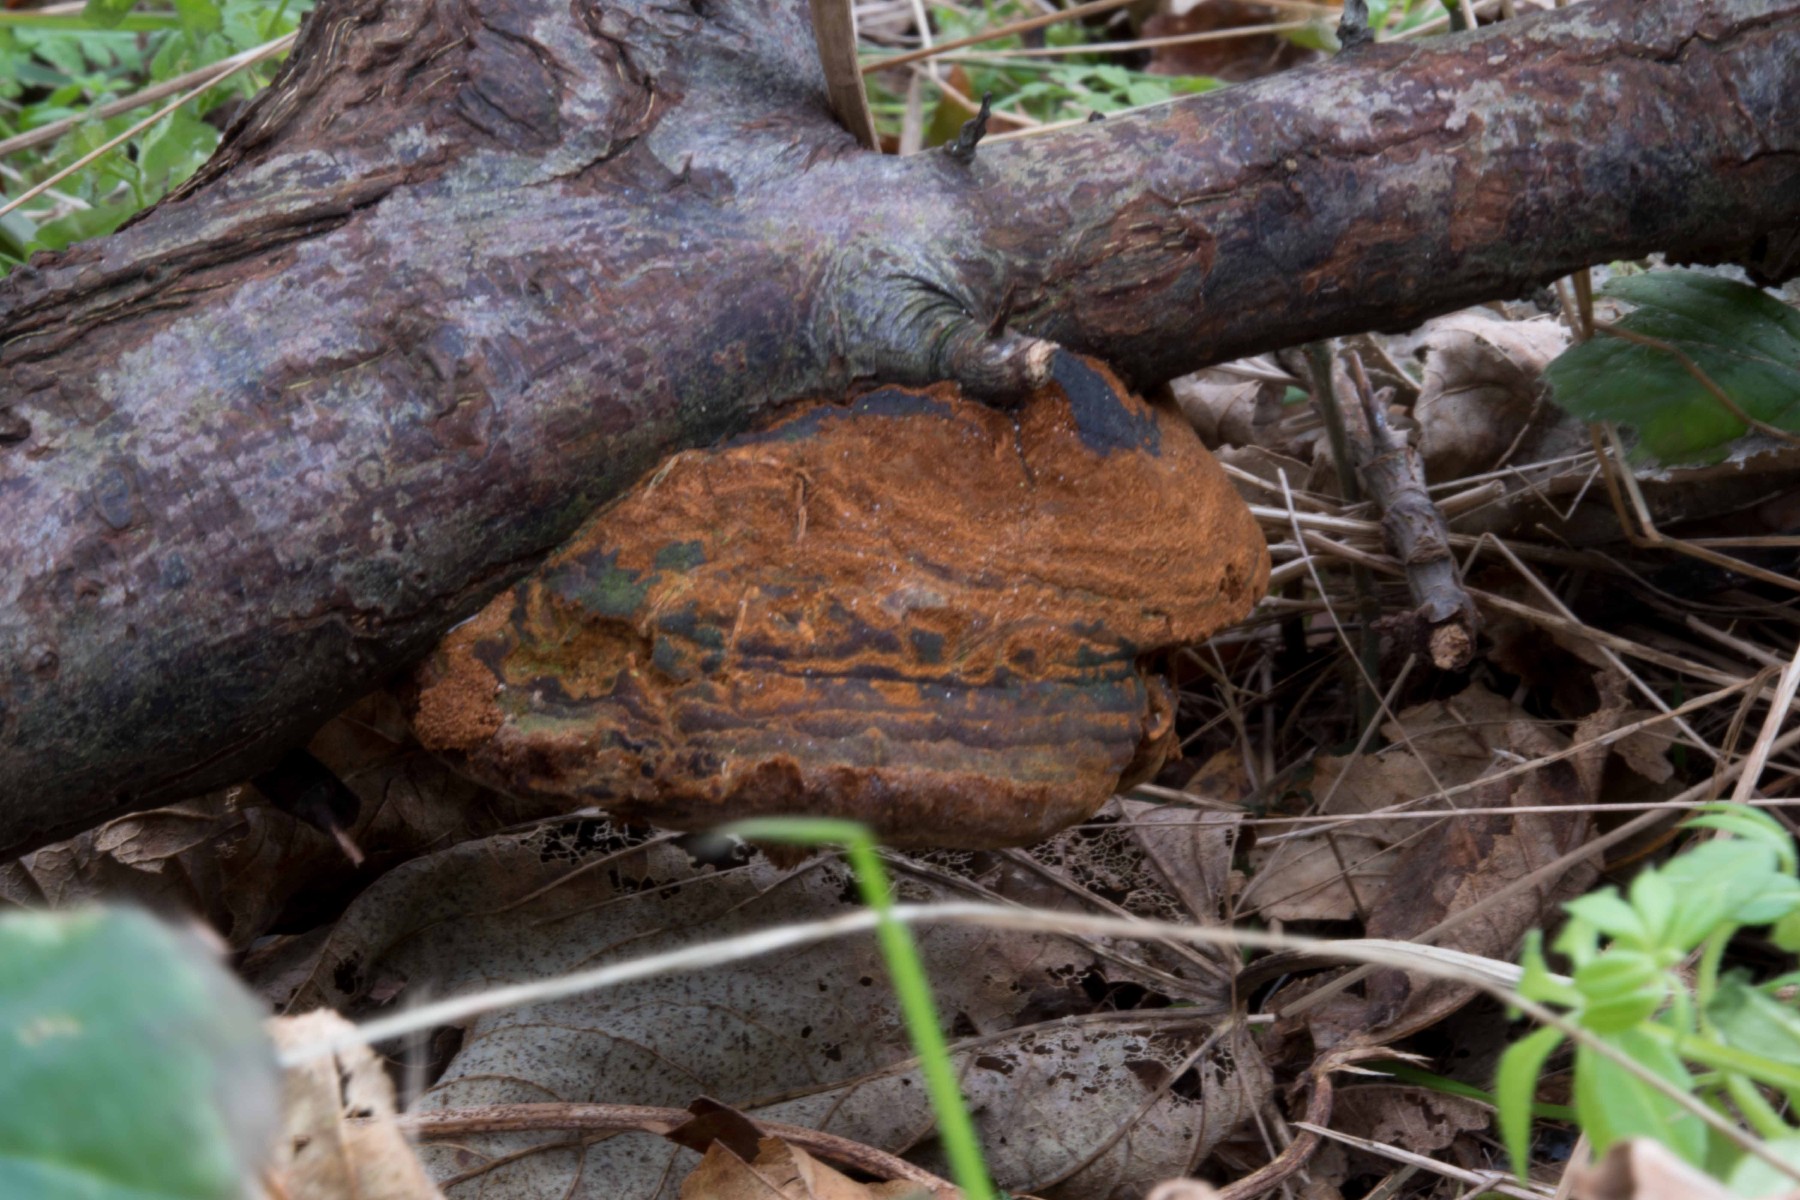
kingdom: Fungi
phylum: Basidiomycota
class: Agaricomycetes
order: Hymenochaetales
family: Hymenochaetaceae
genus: Fomitiporia
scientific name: Fomitiporia hippophaeicola
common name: havtorn-ildporesvamp
